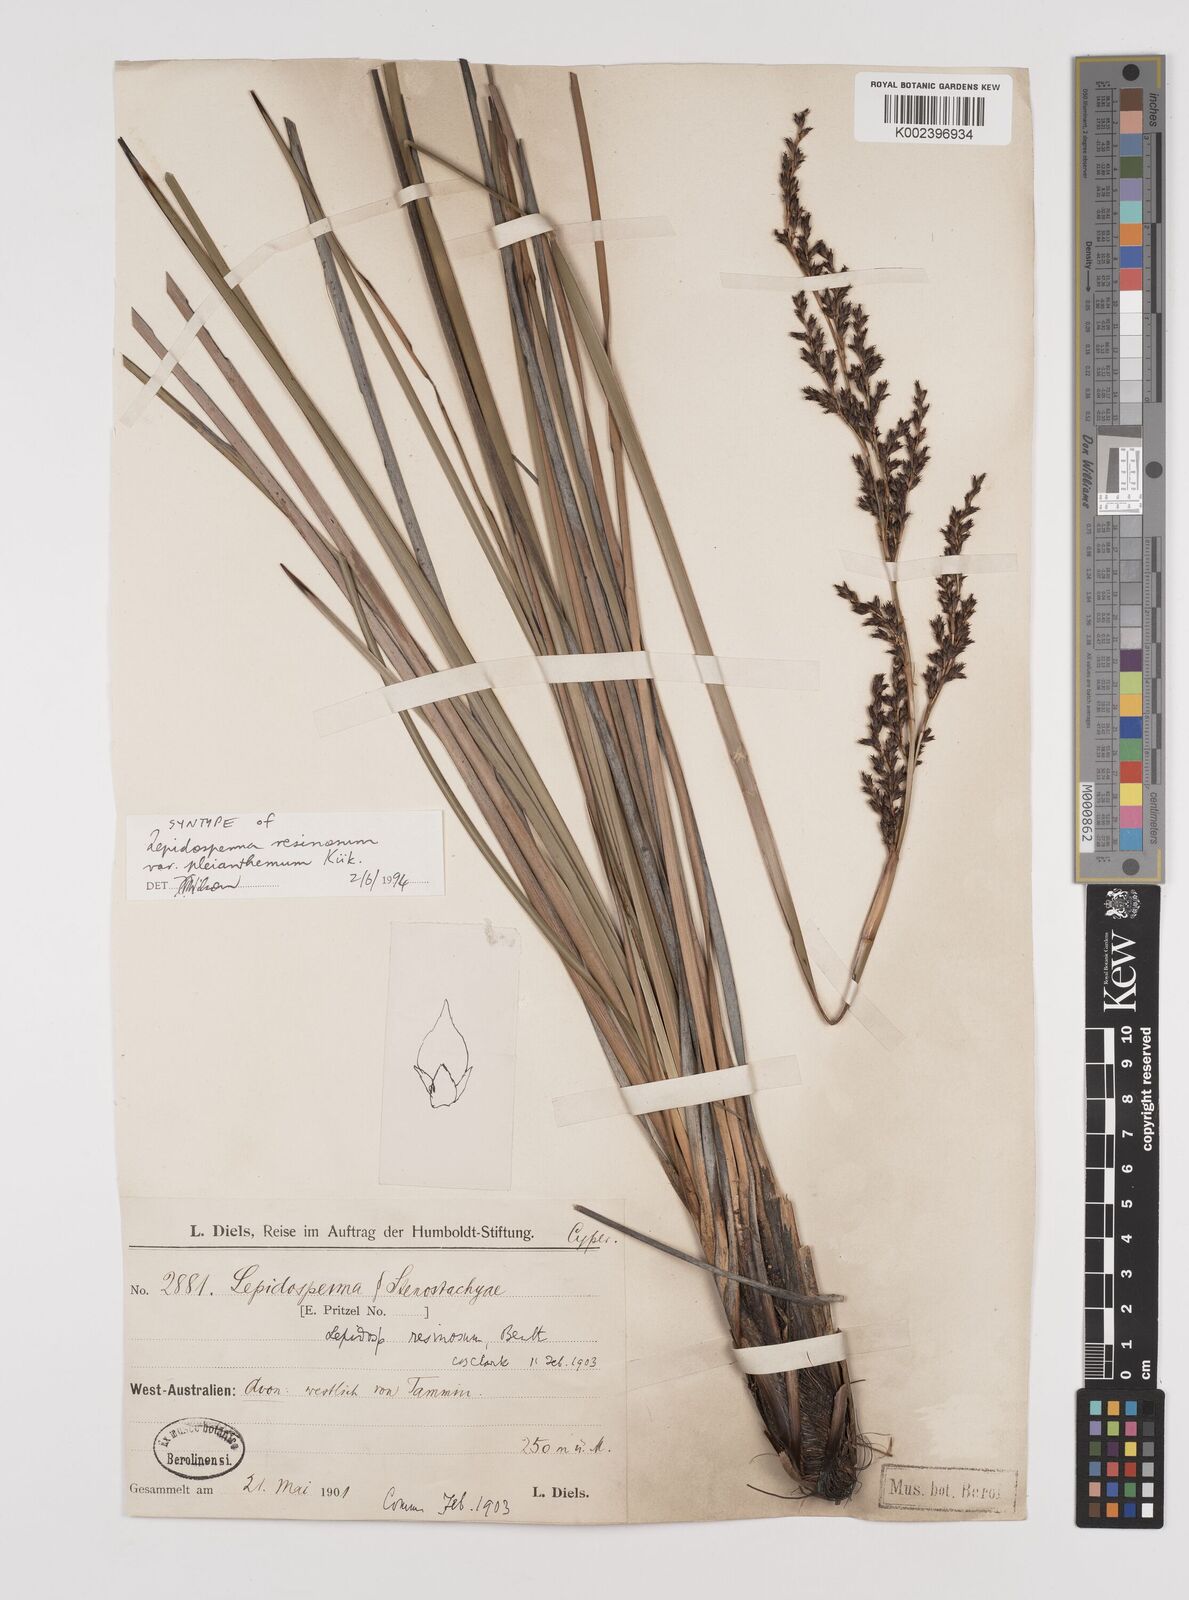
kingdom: Plantae
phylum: Tracheophyta
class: Liliopsida
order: Poales
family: Cyperaceae
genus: Lepidosperma
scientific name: Lepidosperma resinosum
